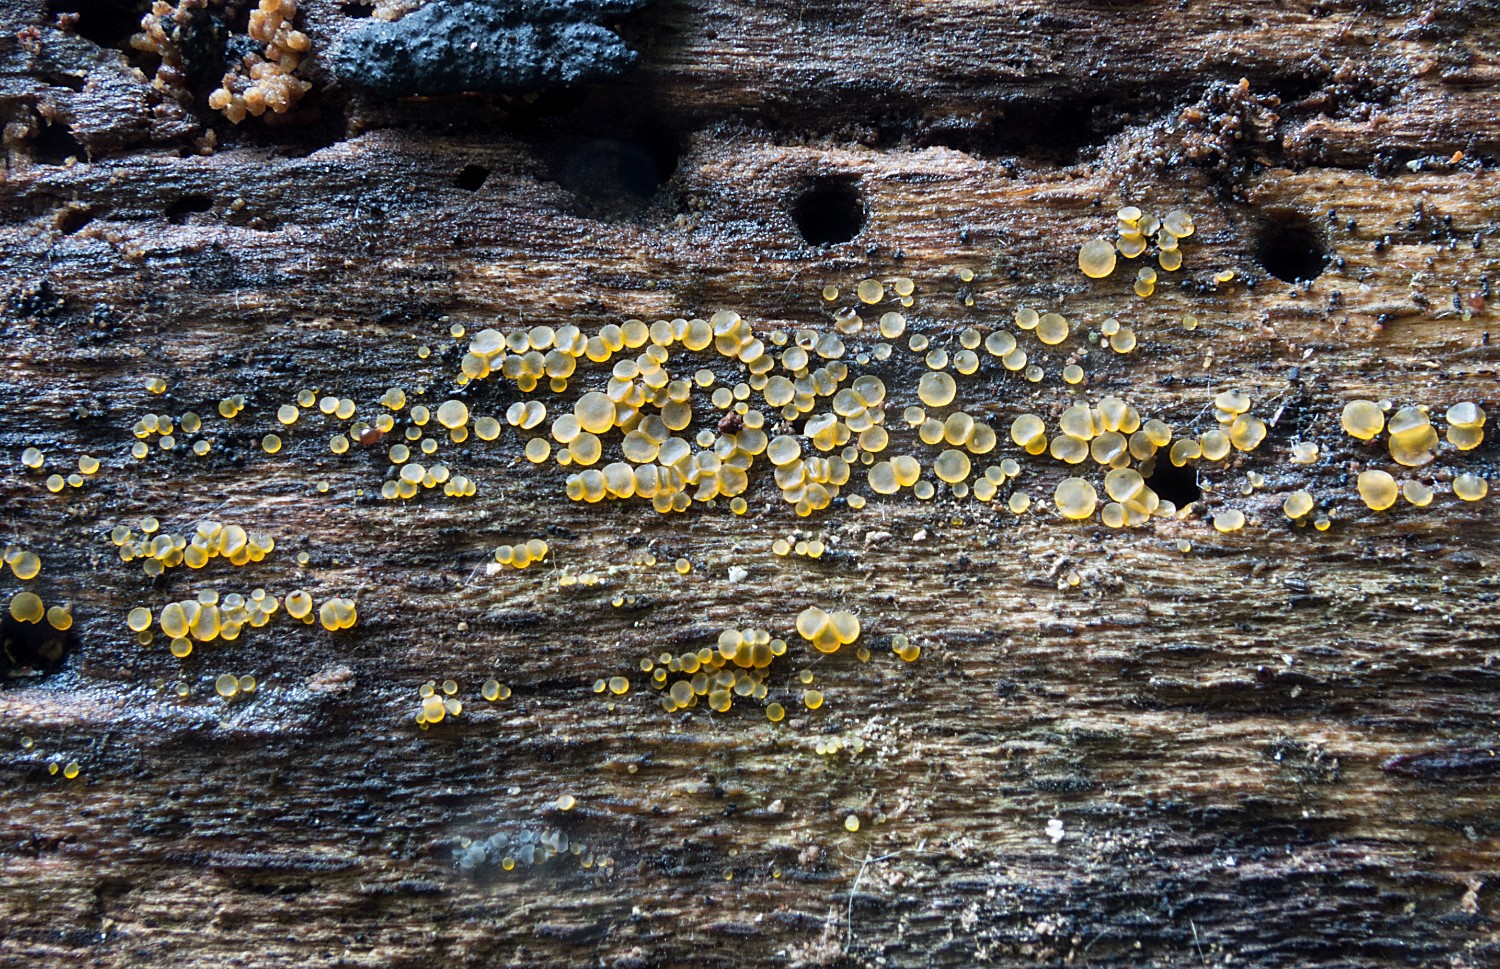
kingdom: Fungi
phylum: Ascomycota
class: Orbiliomycetes
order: Orbiliales
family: Orbiliaceae
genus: Orbilia
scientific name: Orbilia xanthostigma
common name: krumsporet voksskive
